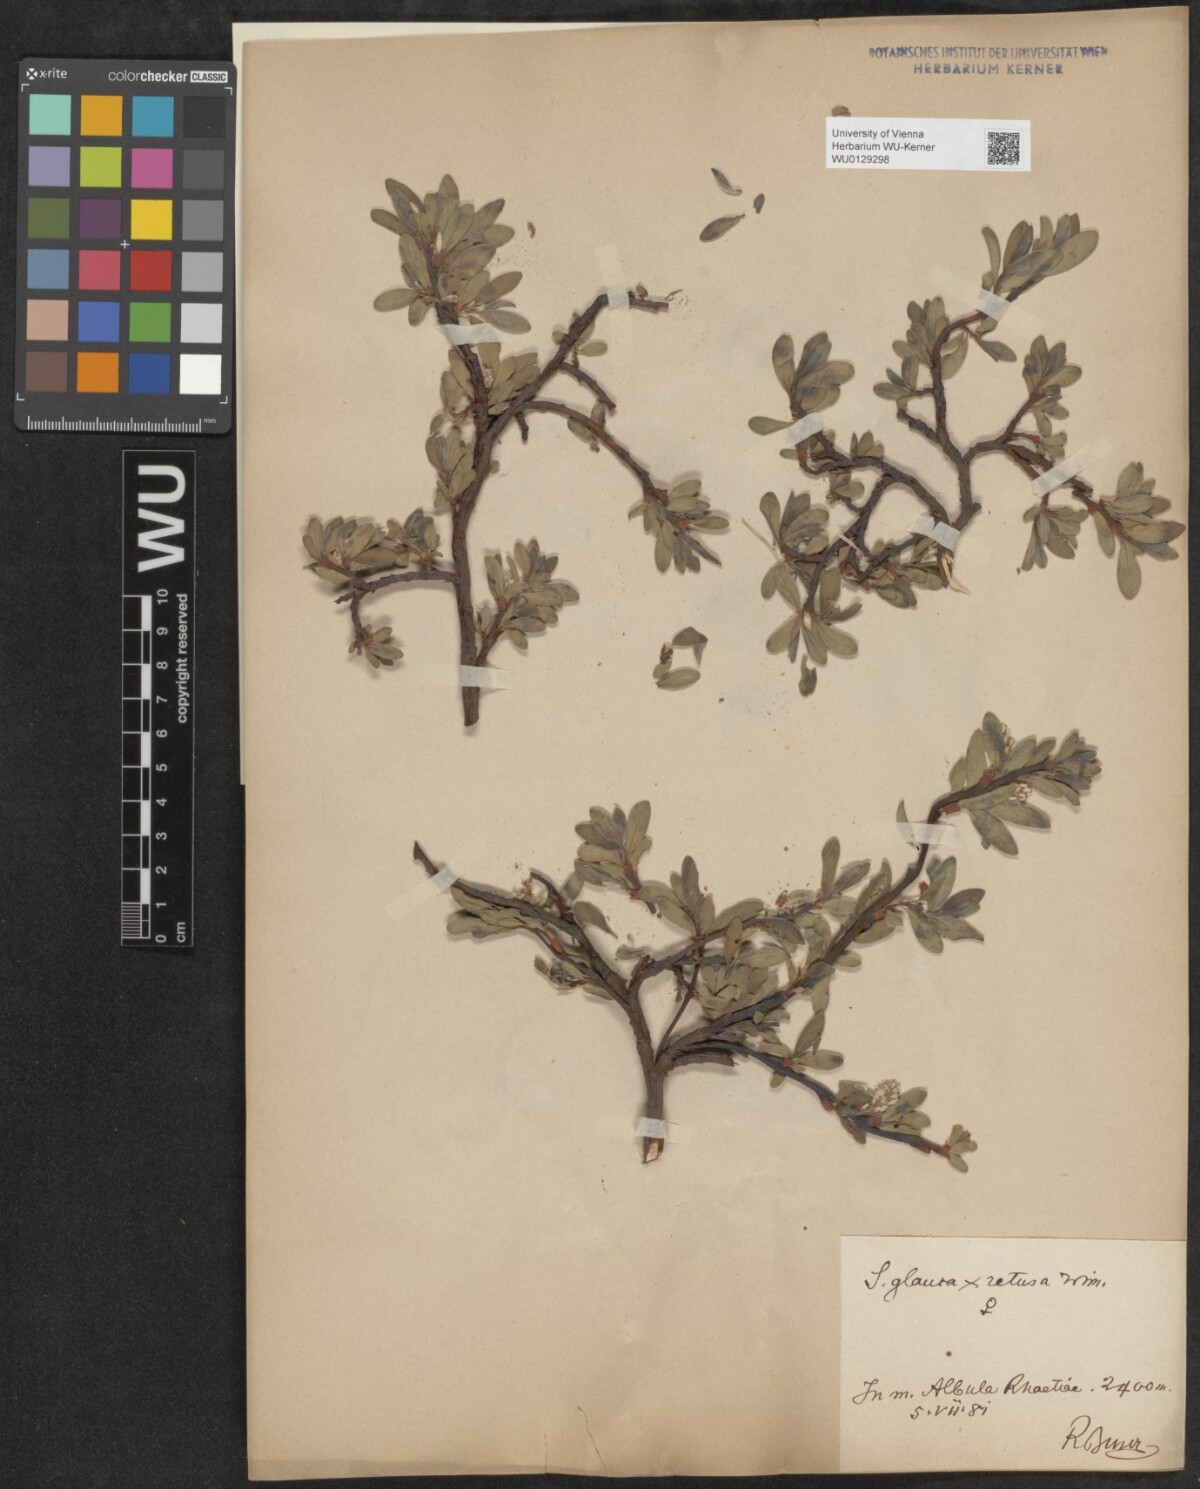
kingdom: Plantae
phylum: Tracheophyta
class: Magnoliopsida
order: Malpighiales
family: Salicaceae
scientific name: Salicaceae
